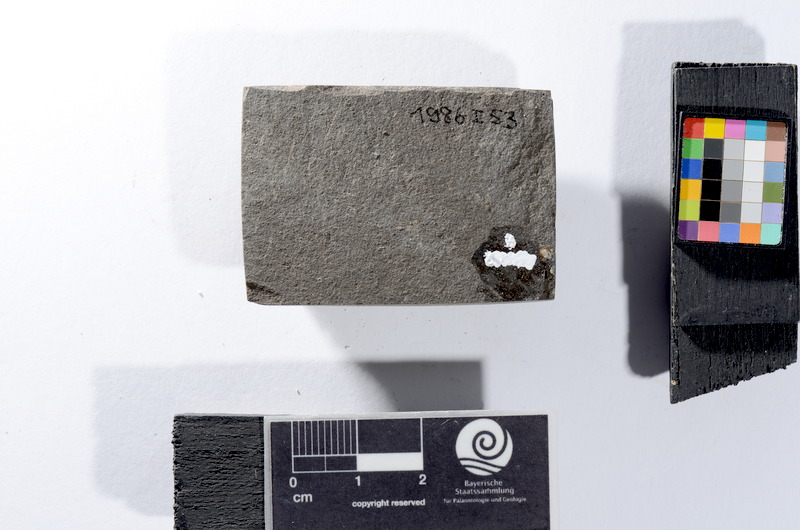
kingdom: Animalia
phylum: Chordata
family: Leptolepididae
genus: Leptolepis
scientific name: Leptolepis coryphaenoides
